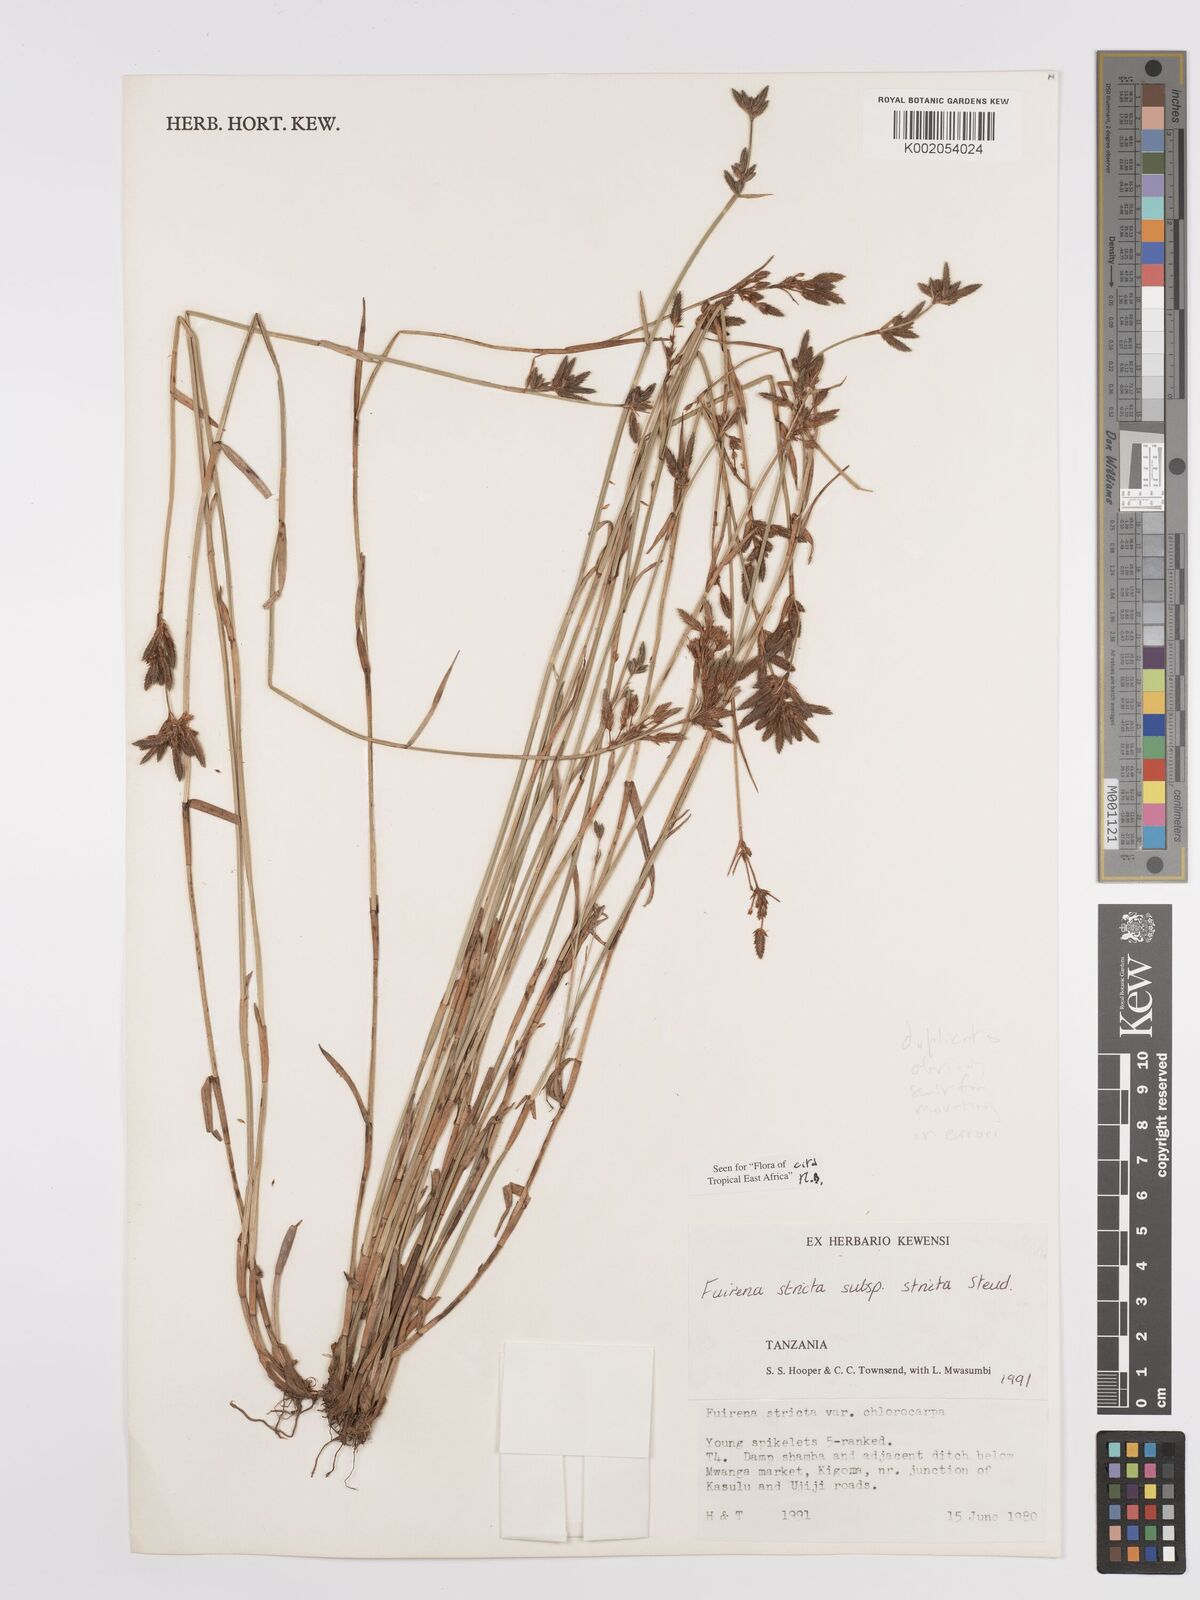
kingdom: Plantae
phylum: Tracheophyta
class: Liliopsida
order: Poales
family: Cyperaceae
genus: Fuirena
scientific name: Fuirena stricta
